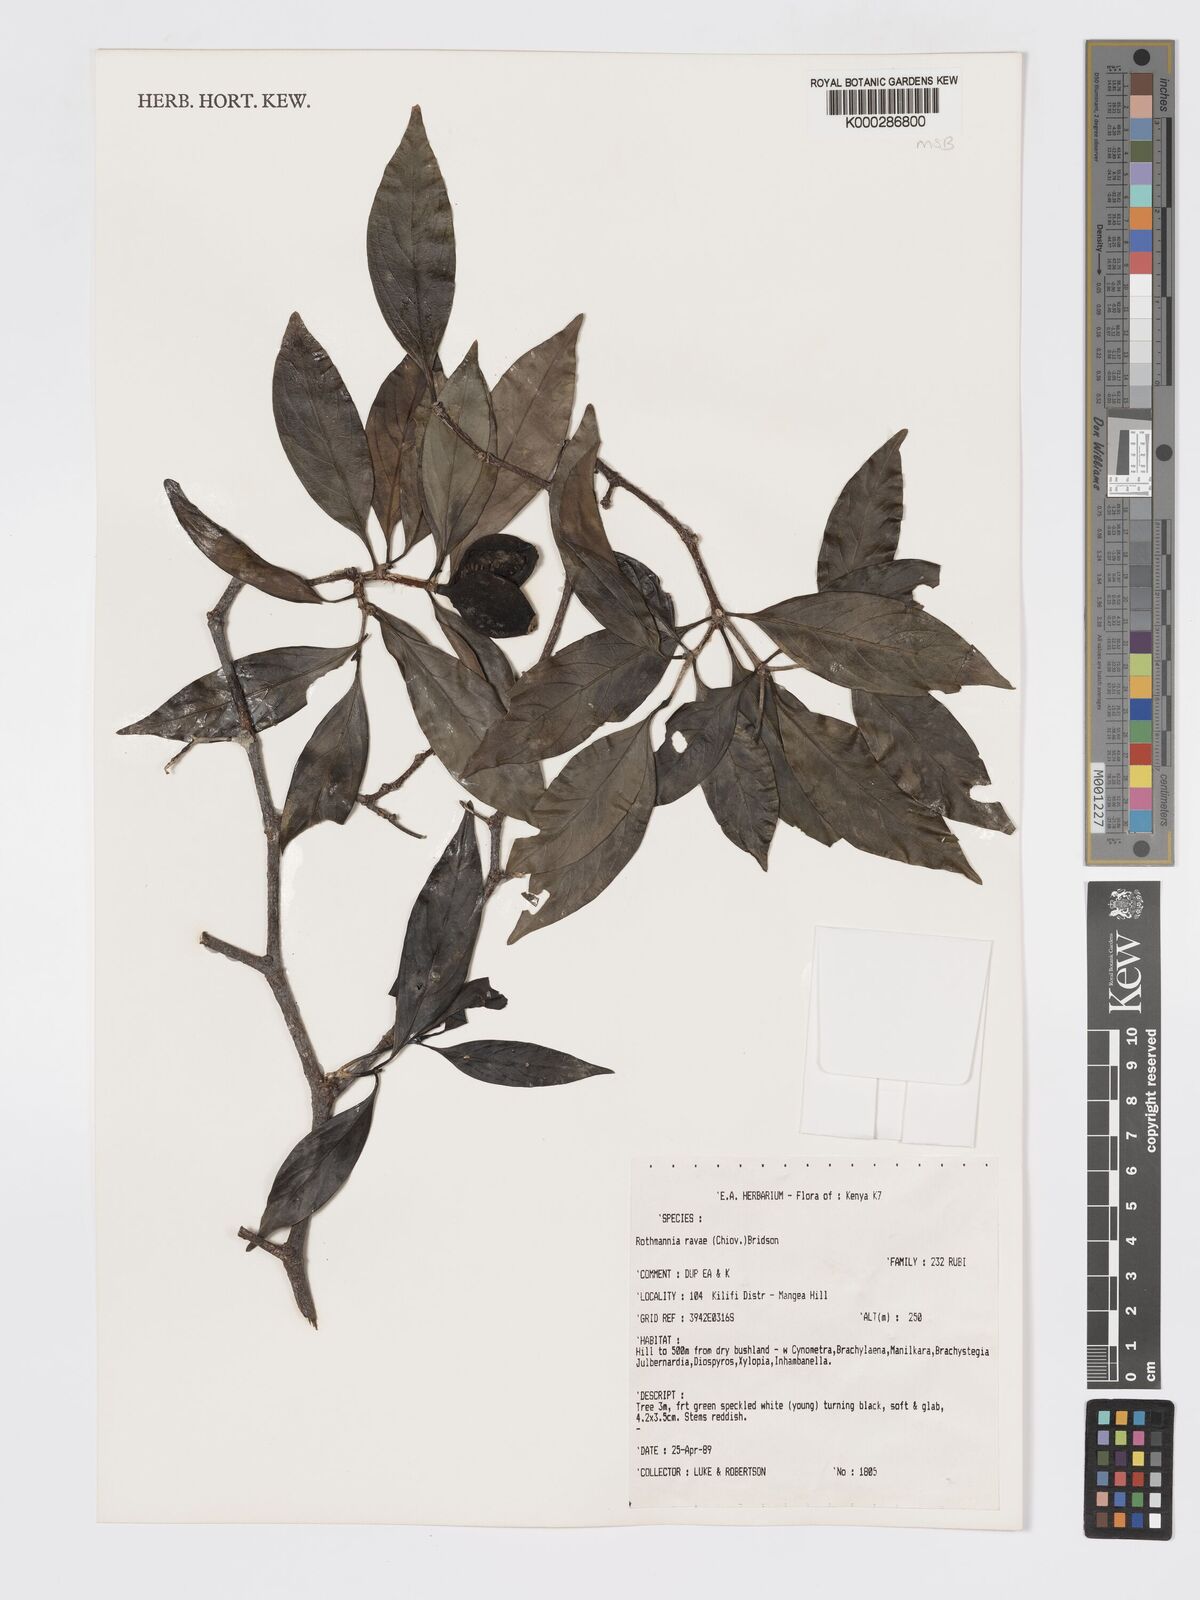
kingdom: Plantae
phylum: Tracheophyta
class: Magnoliopsida
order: Gentianales
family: Rubiaceae
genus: Rothmannia
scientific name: Rothmannia ravae
